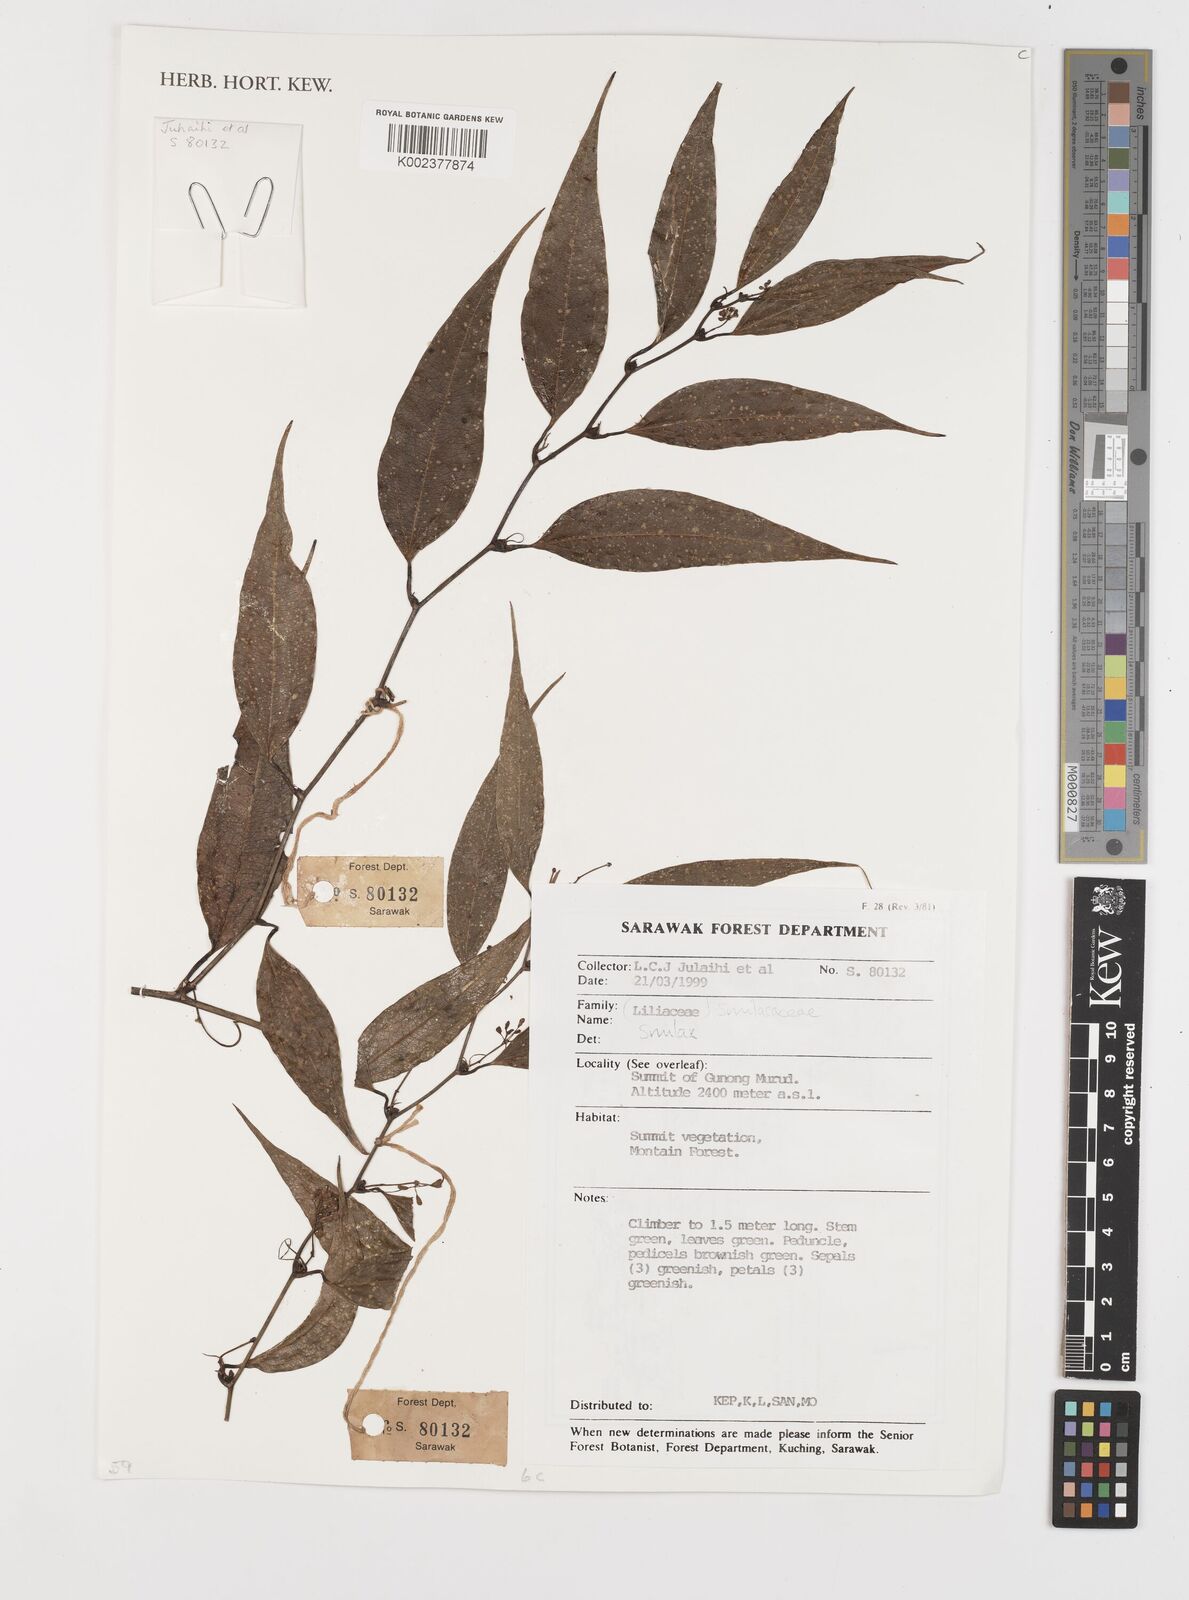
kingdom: Plantae
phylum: Tracheophyta
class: Liliopsida
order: Liliales
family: Smilacaceae
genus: Smilax
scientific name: Smilax
